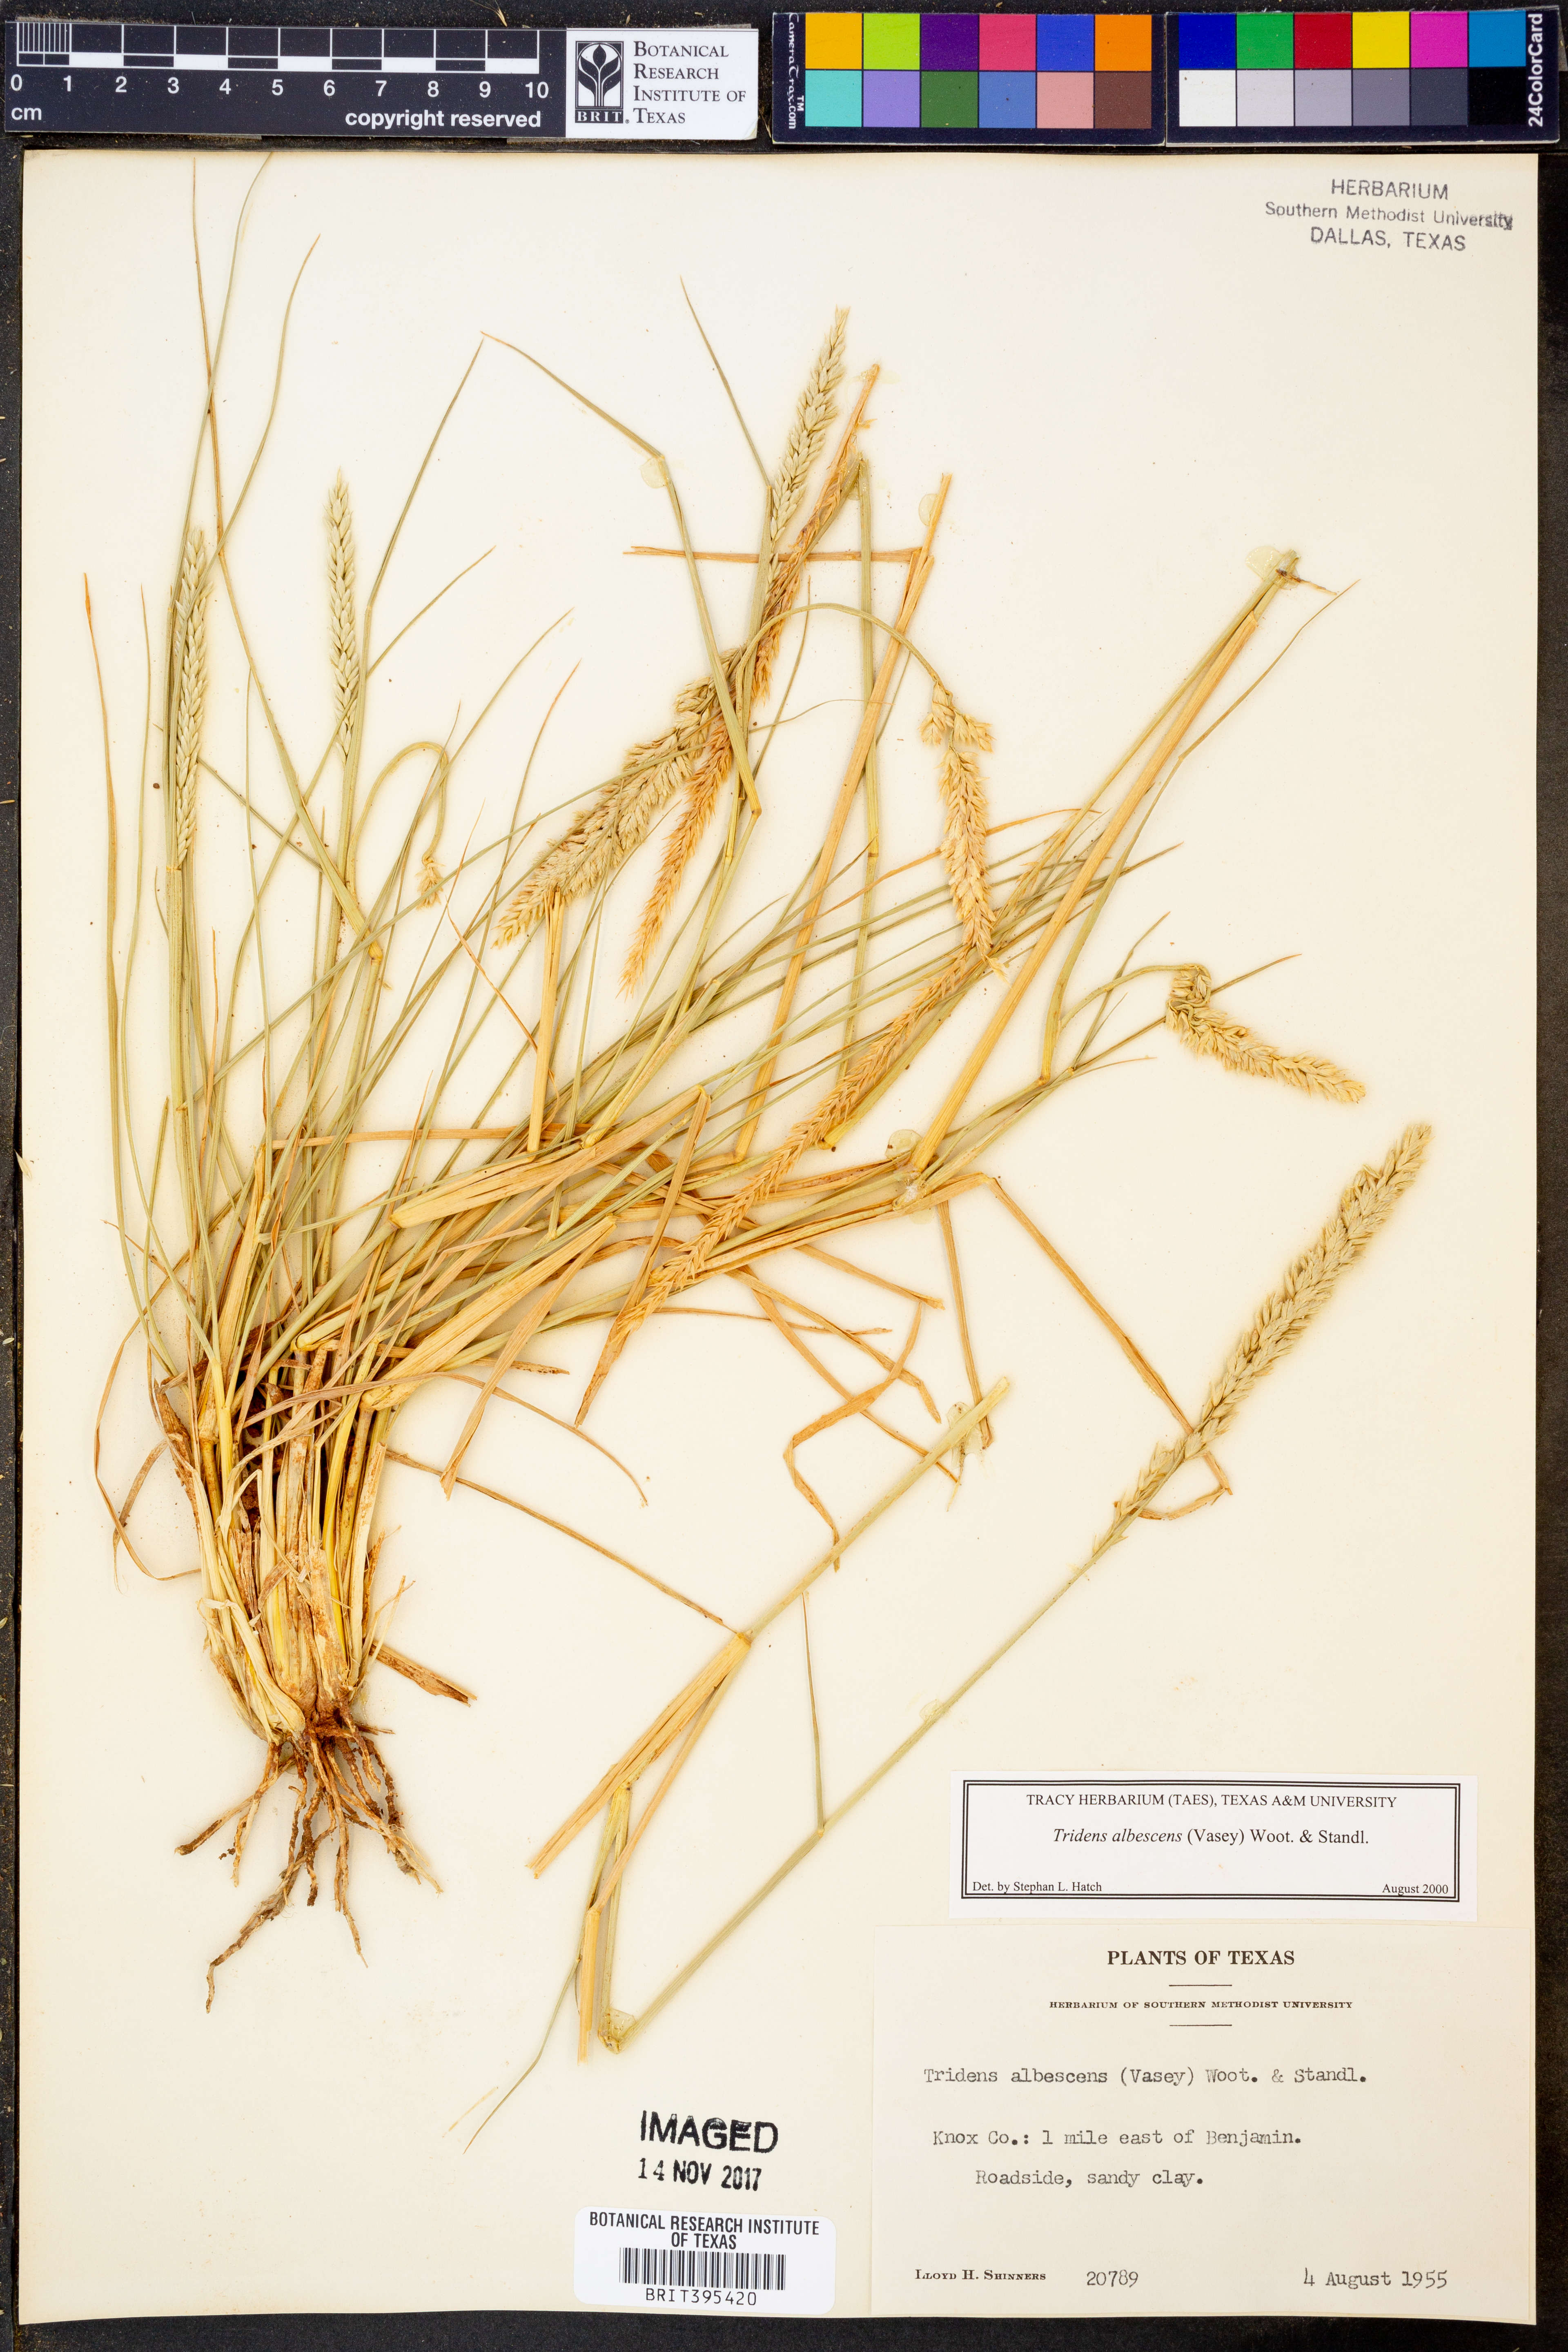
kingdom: Plantae
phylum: Tracheophyta
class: Liliopsida
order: Poales
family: Poaceae
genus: Tridens
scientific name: Tridens albescens
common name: White tridens
